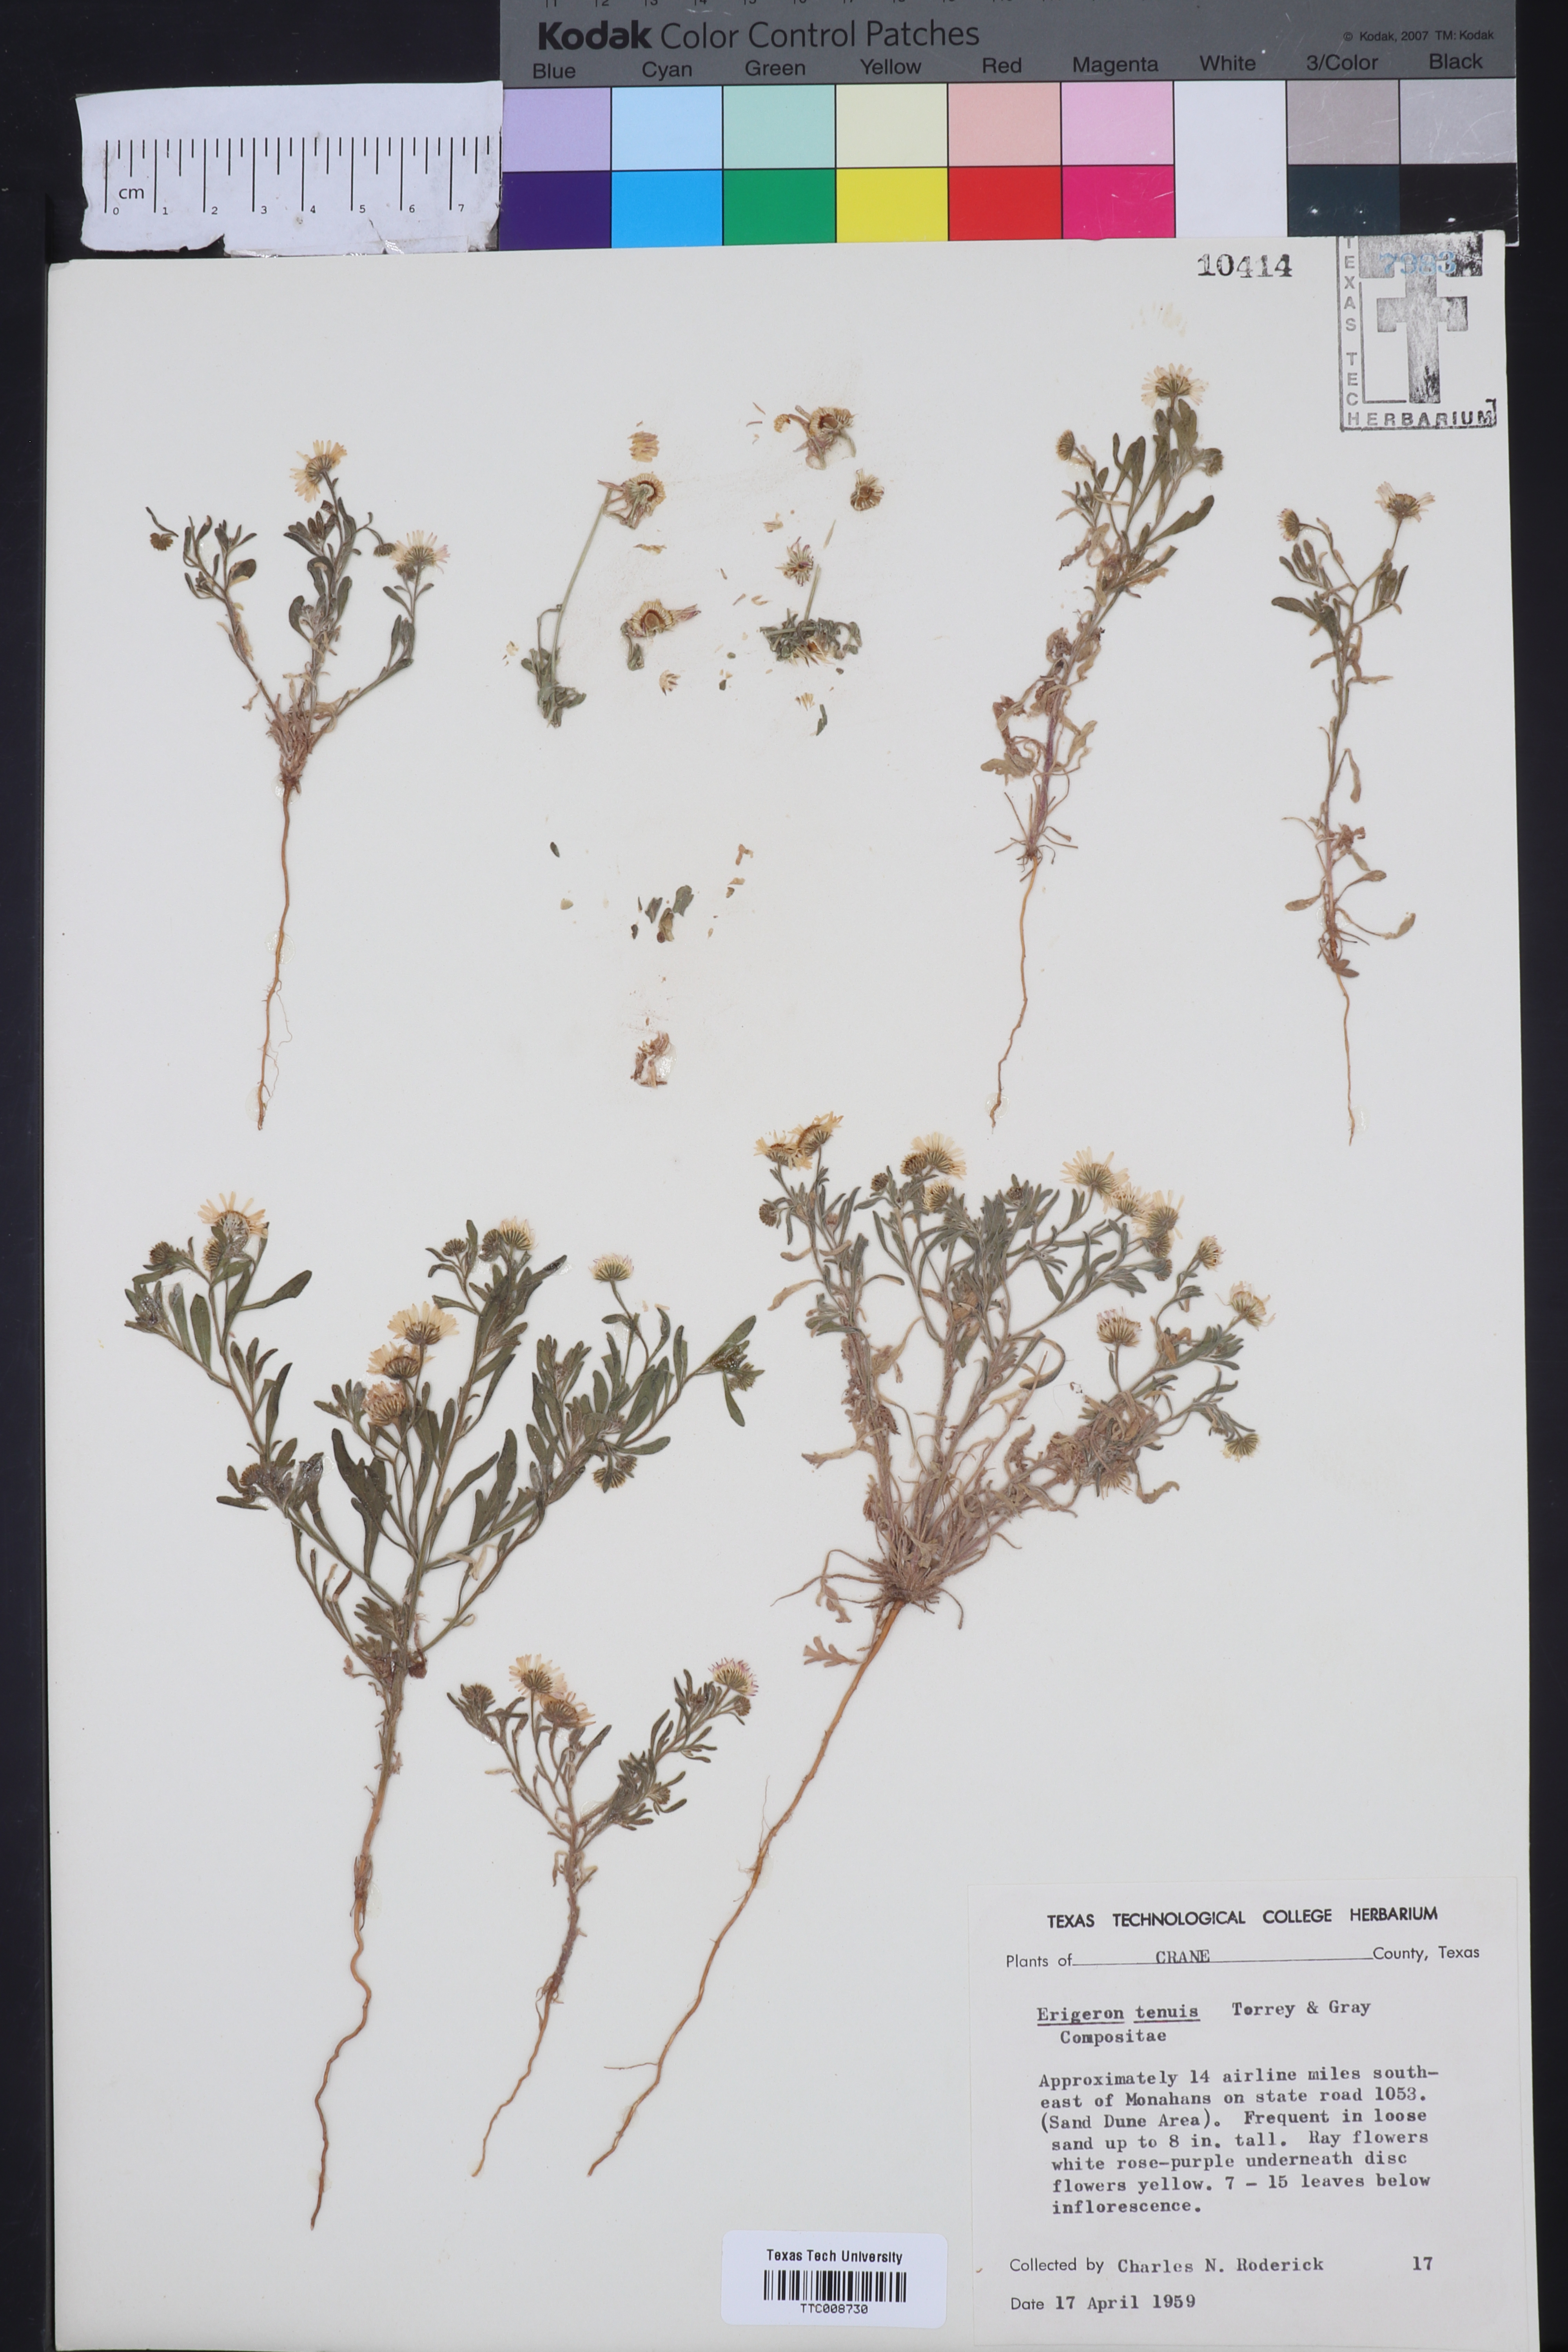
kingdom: Plantae
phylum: Tracheophyta
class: Magnoliopsida
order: Asterales
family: Asteraceae
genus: Erigeron
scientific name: Erigeron tenuis
